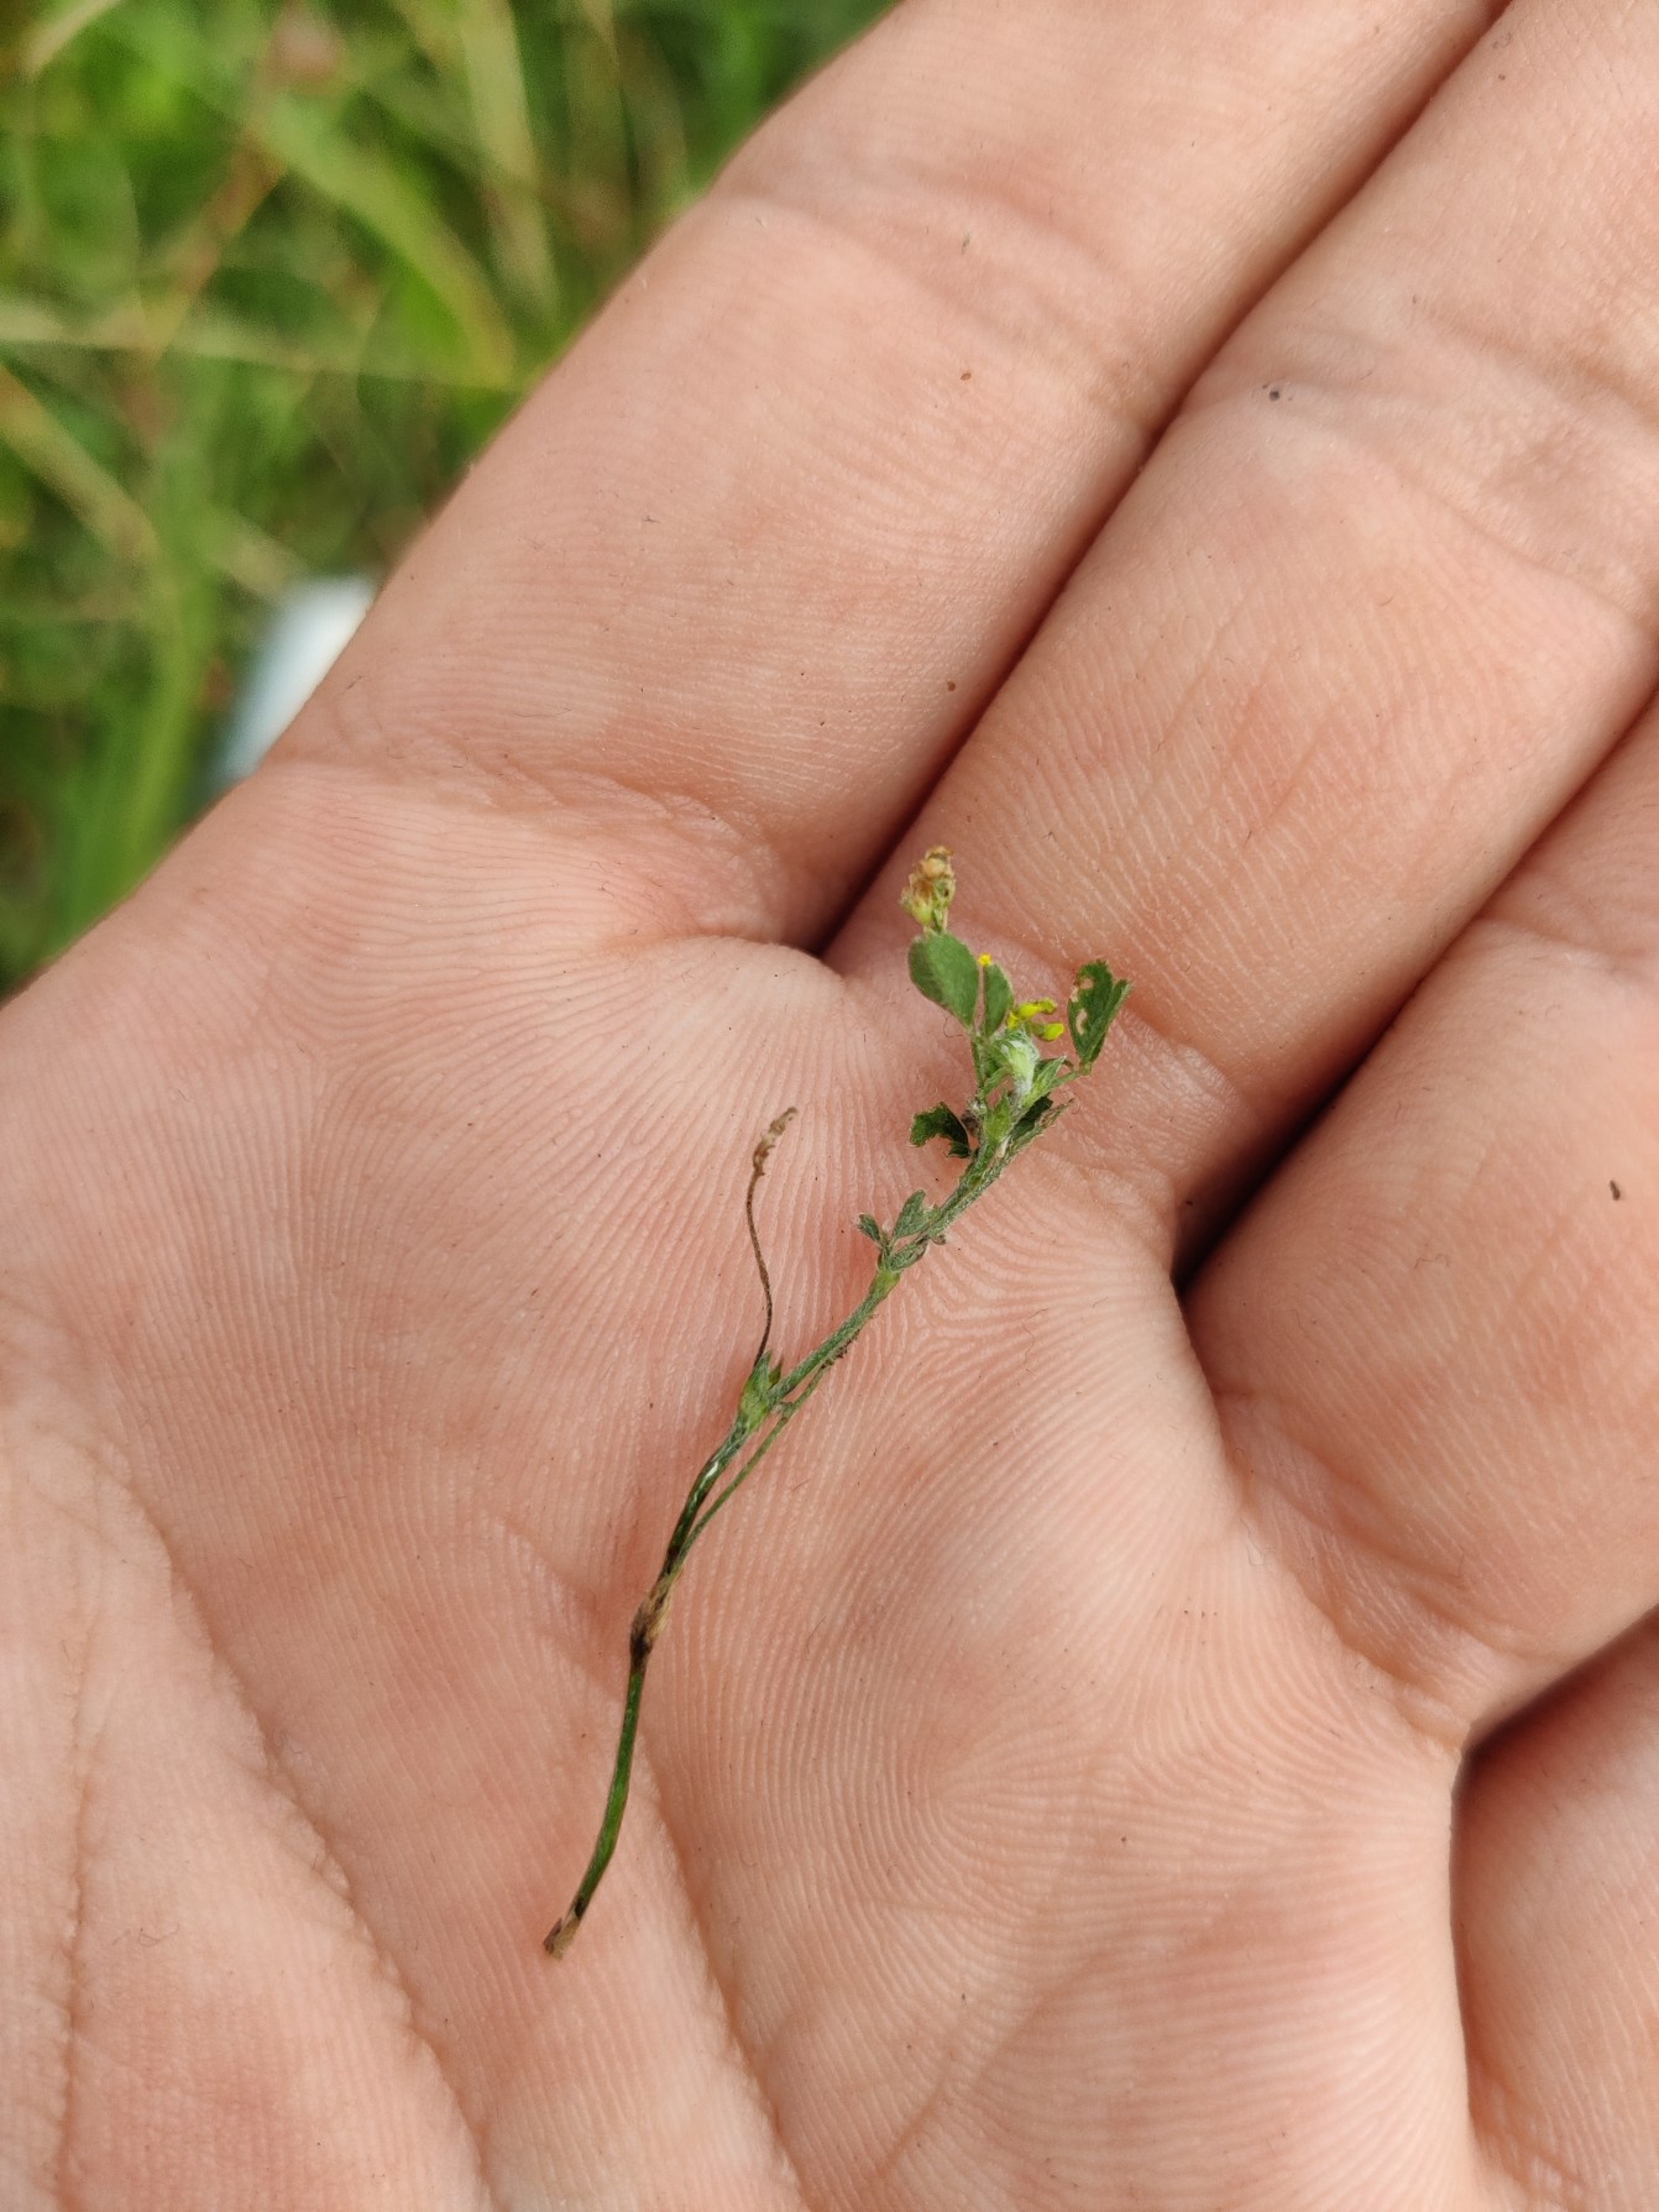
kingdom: Plantae
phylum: Tracheophyta
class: Magnoliopsida
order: Fabales
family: Fabaceae
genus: Medicago
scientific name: Medicago lupulina
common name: Humle-sneglebælg
